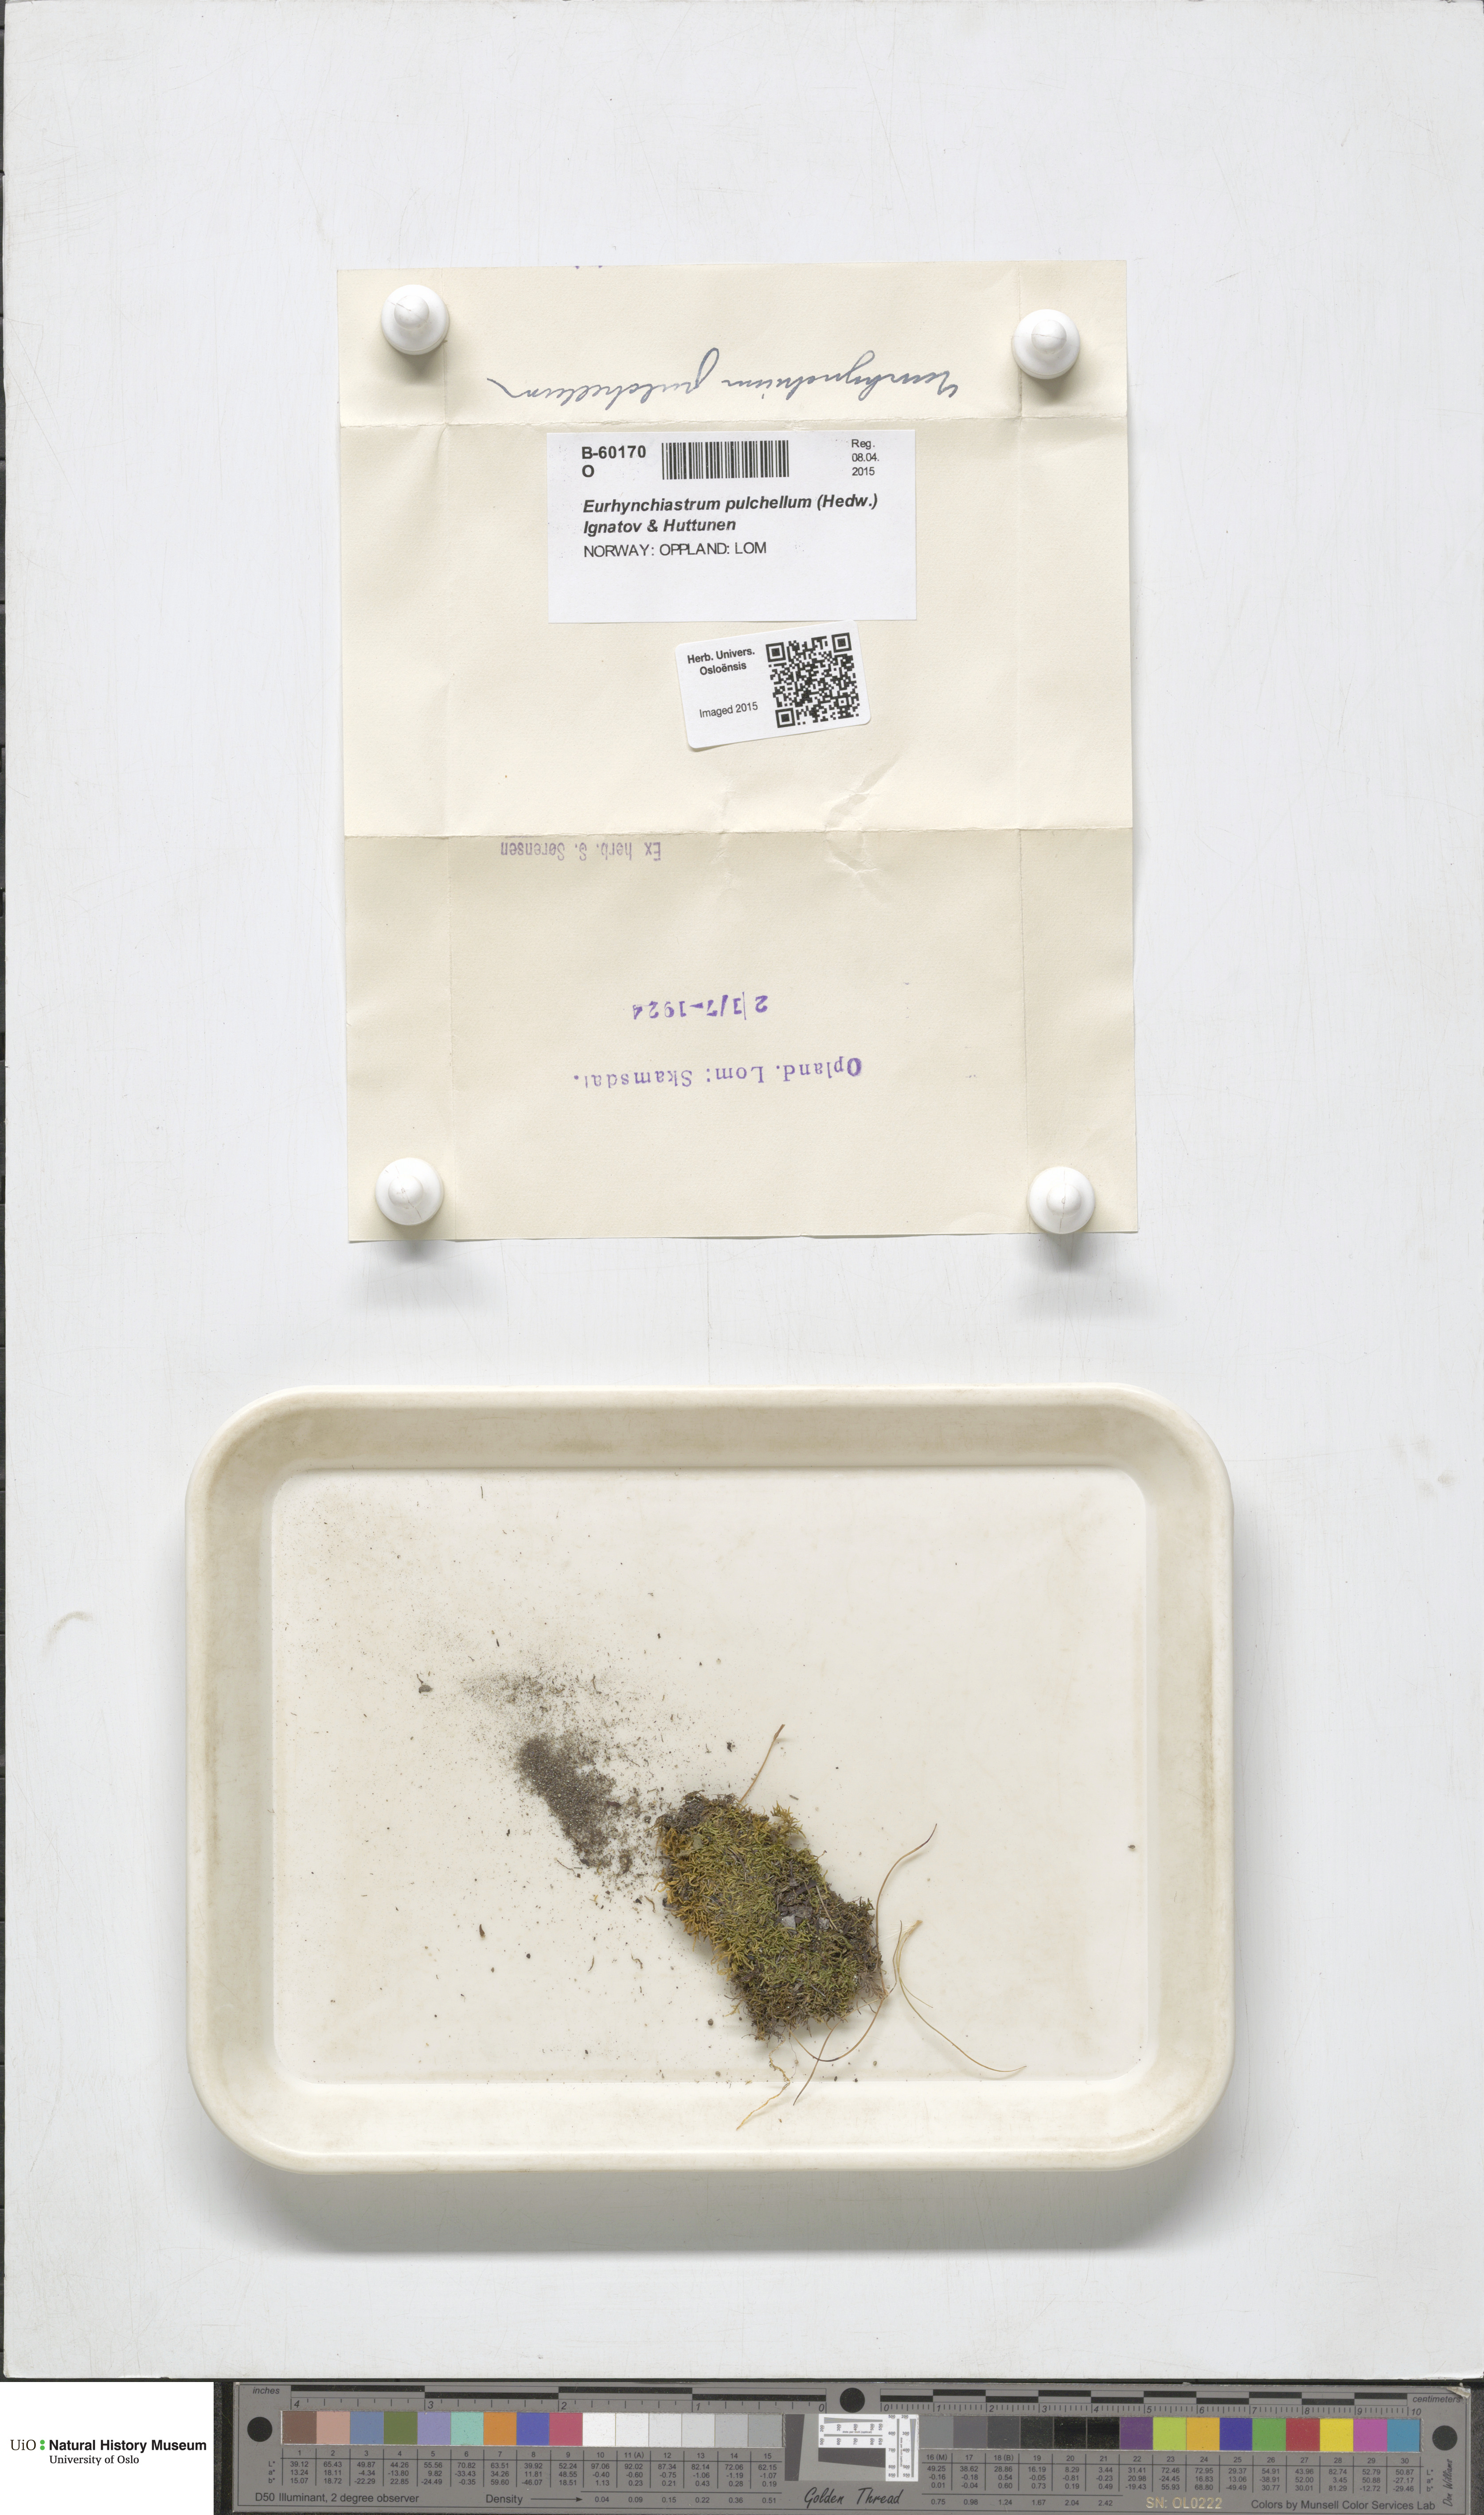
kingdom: Plantae
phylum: Bryophyta
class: Bryopsida
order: Hypnales
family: Brachytheciaceae
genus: Eurhynchiastrum
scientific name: Eurhynchiastrum pulchellum
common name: Elegant beaked moss
